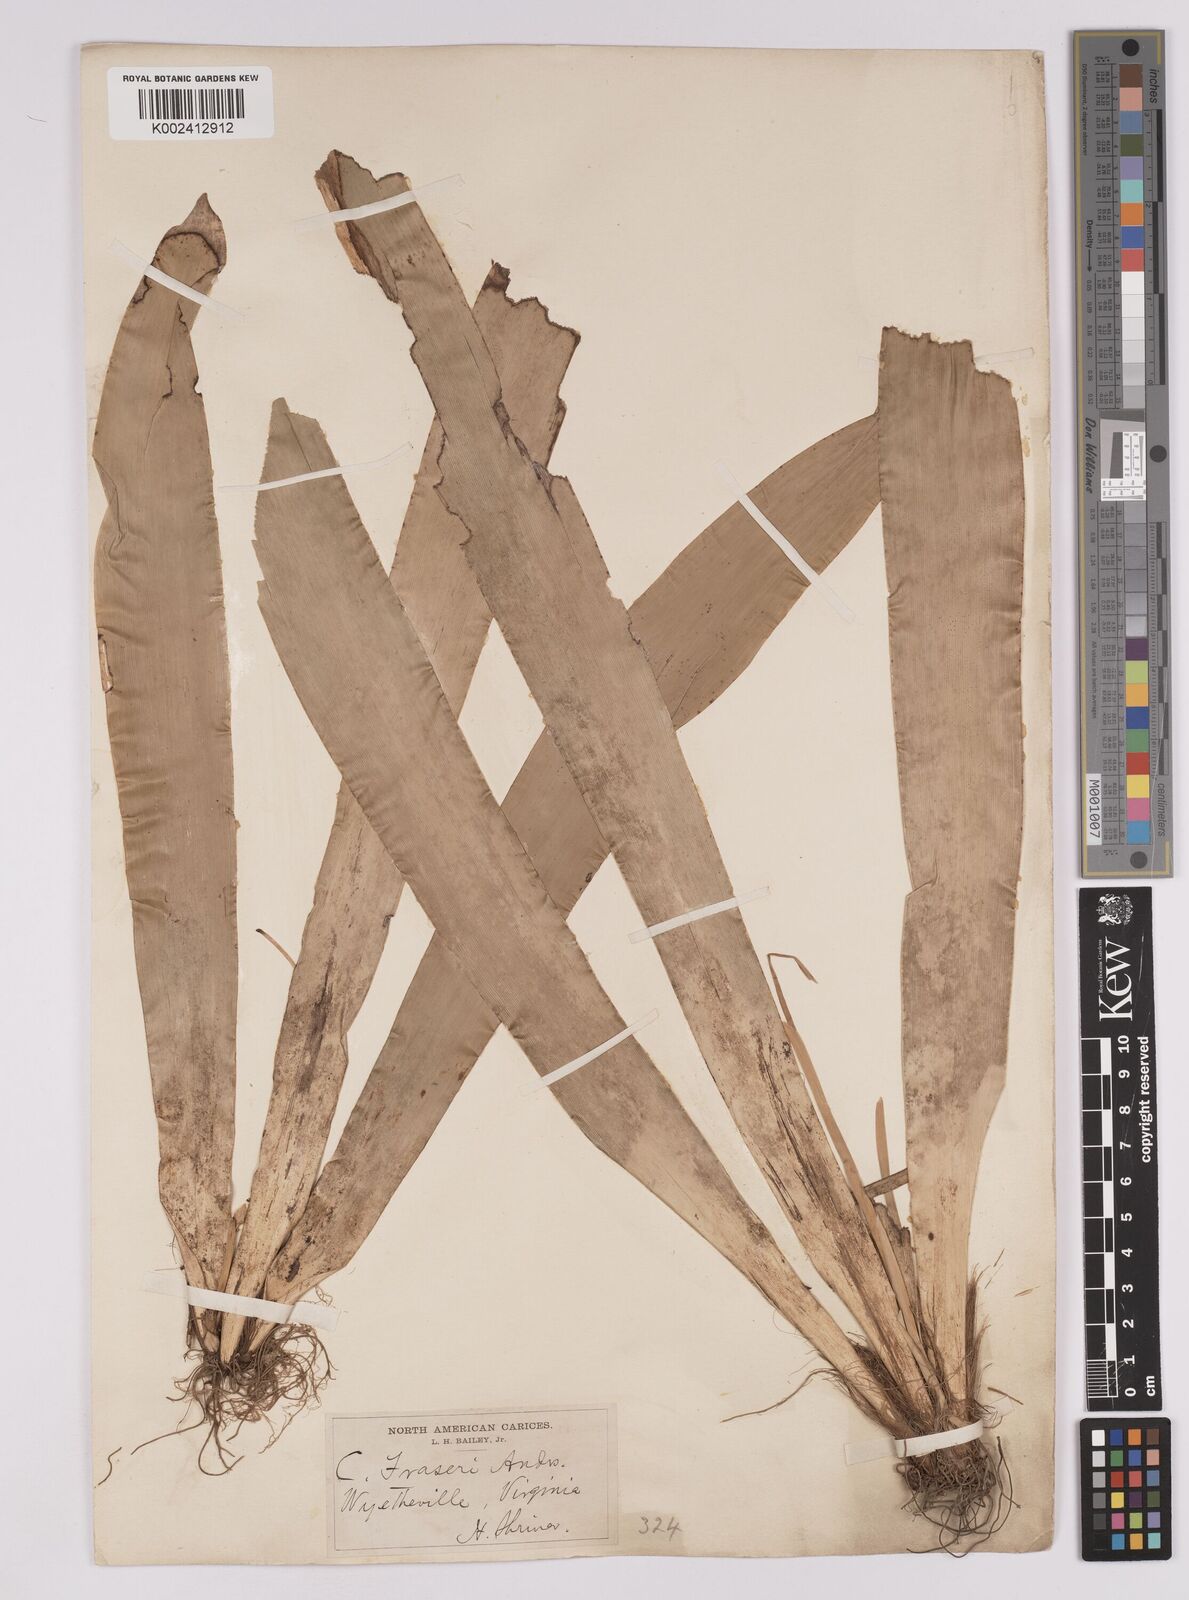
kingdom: Plantae
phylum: Tracheophyta
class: Liliopsida
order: Poales
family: Cyperaceae
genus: Carex
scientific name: Carex fraseriana
